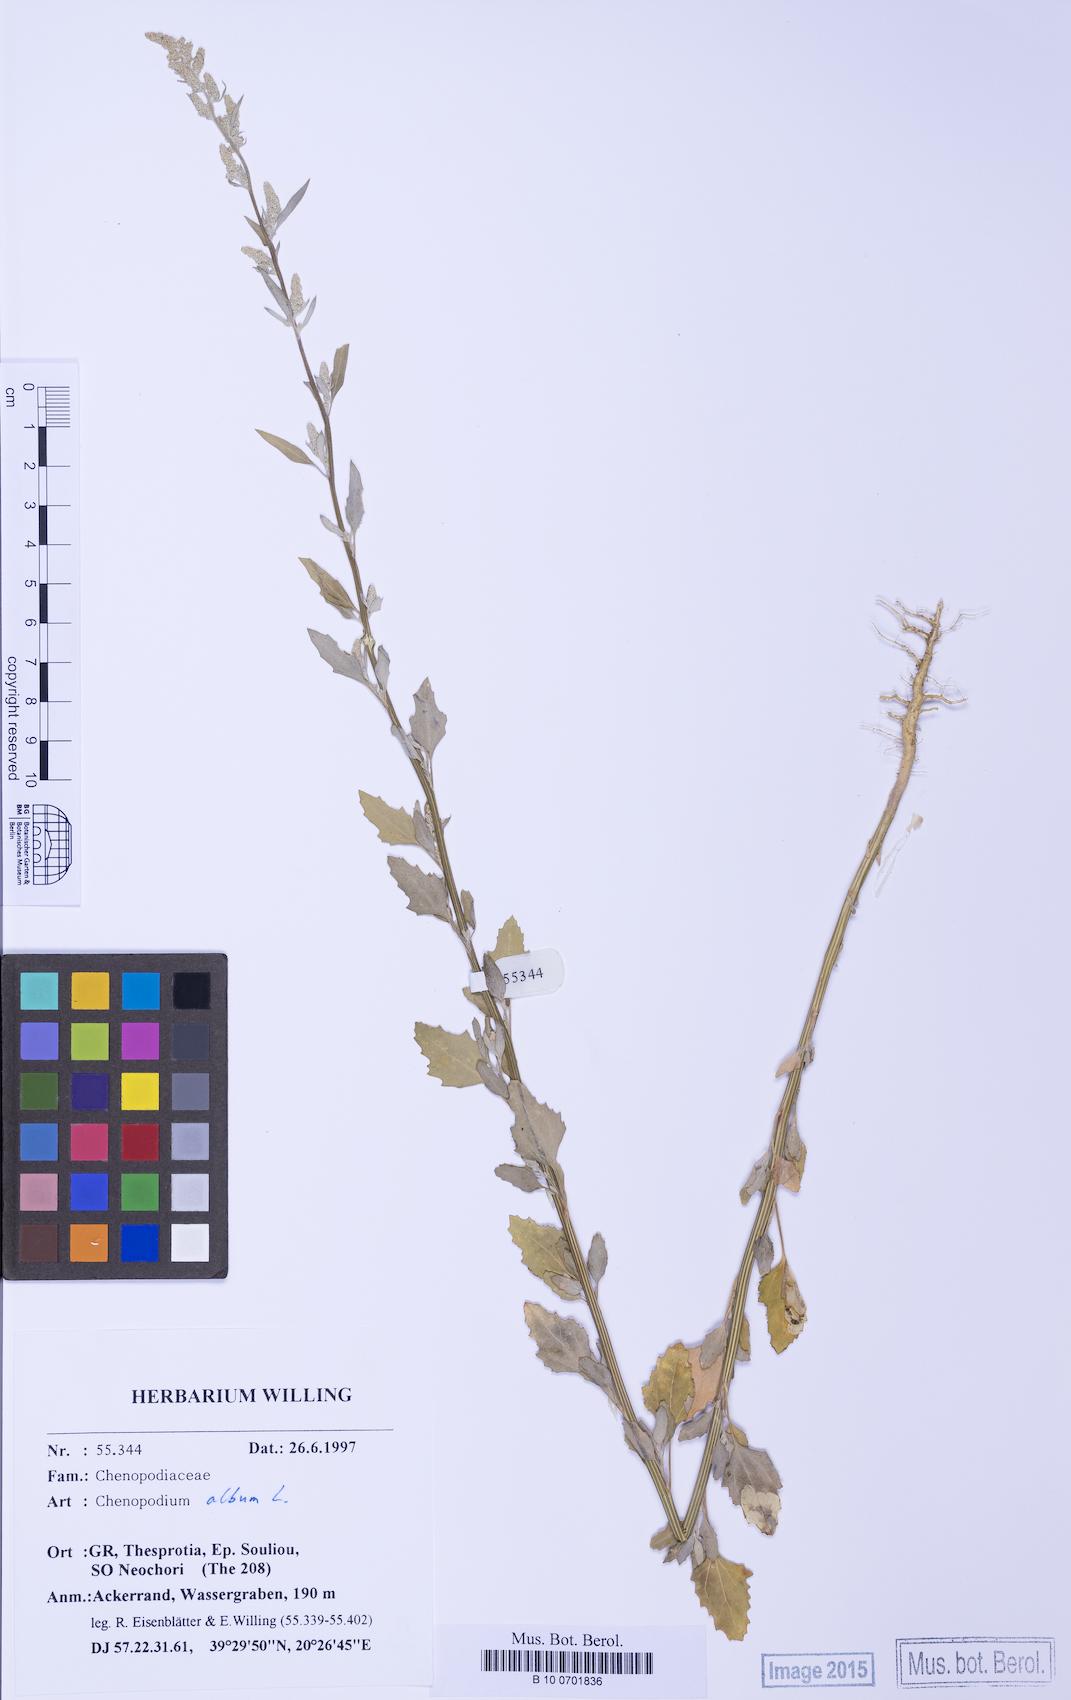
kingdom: Plantae
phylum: Tracheophyta
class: Magnoliopsida
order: Caryophyllales
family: Amaranthaceae
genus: Chenopodium
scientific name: Chenopodium betaceum
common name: Striped goosefoot
